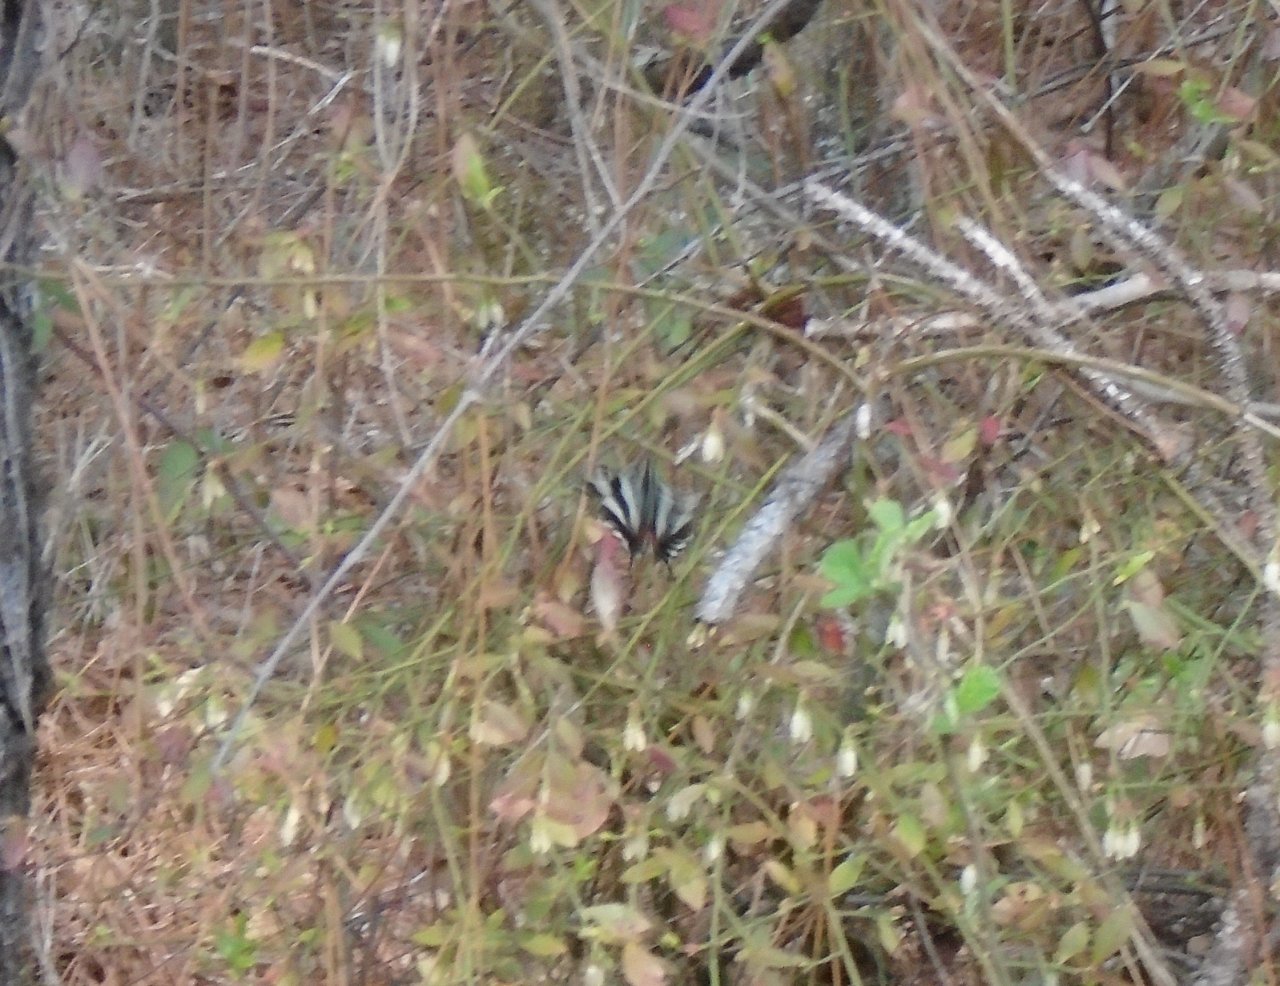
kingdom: Animalia
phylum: Arthropoda
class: Insecta
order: Lepidoptera
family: Papilionidae
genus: Protographium
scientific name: Protographium marcellus
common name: Zebra Swallowtail
